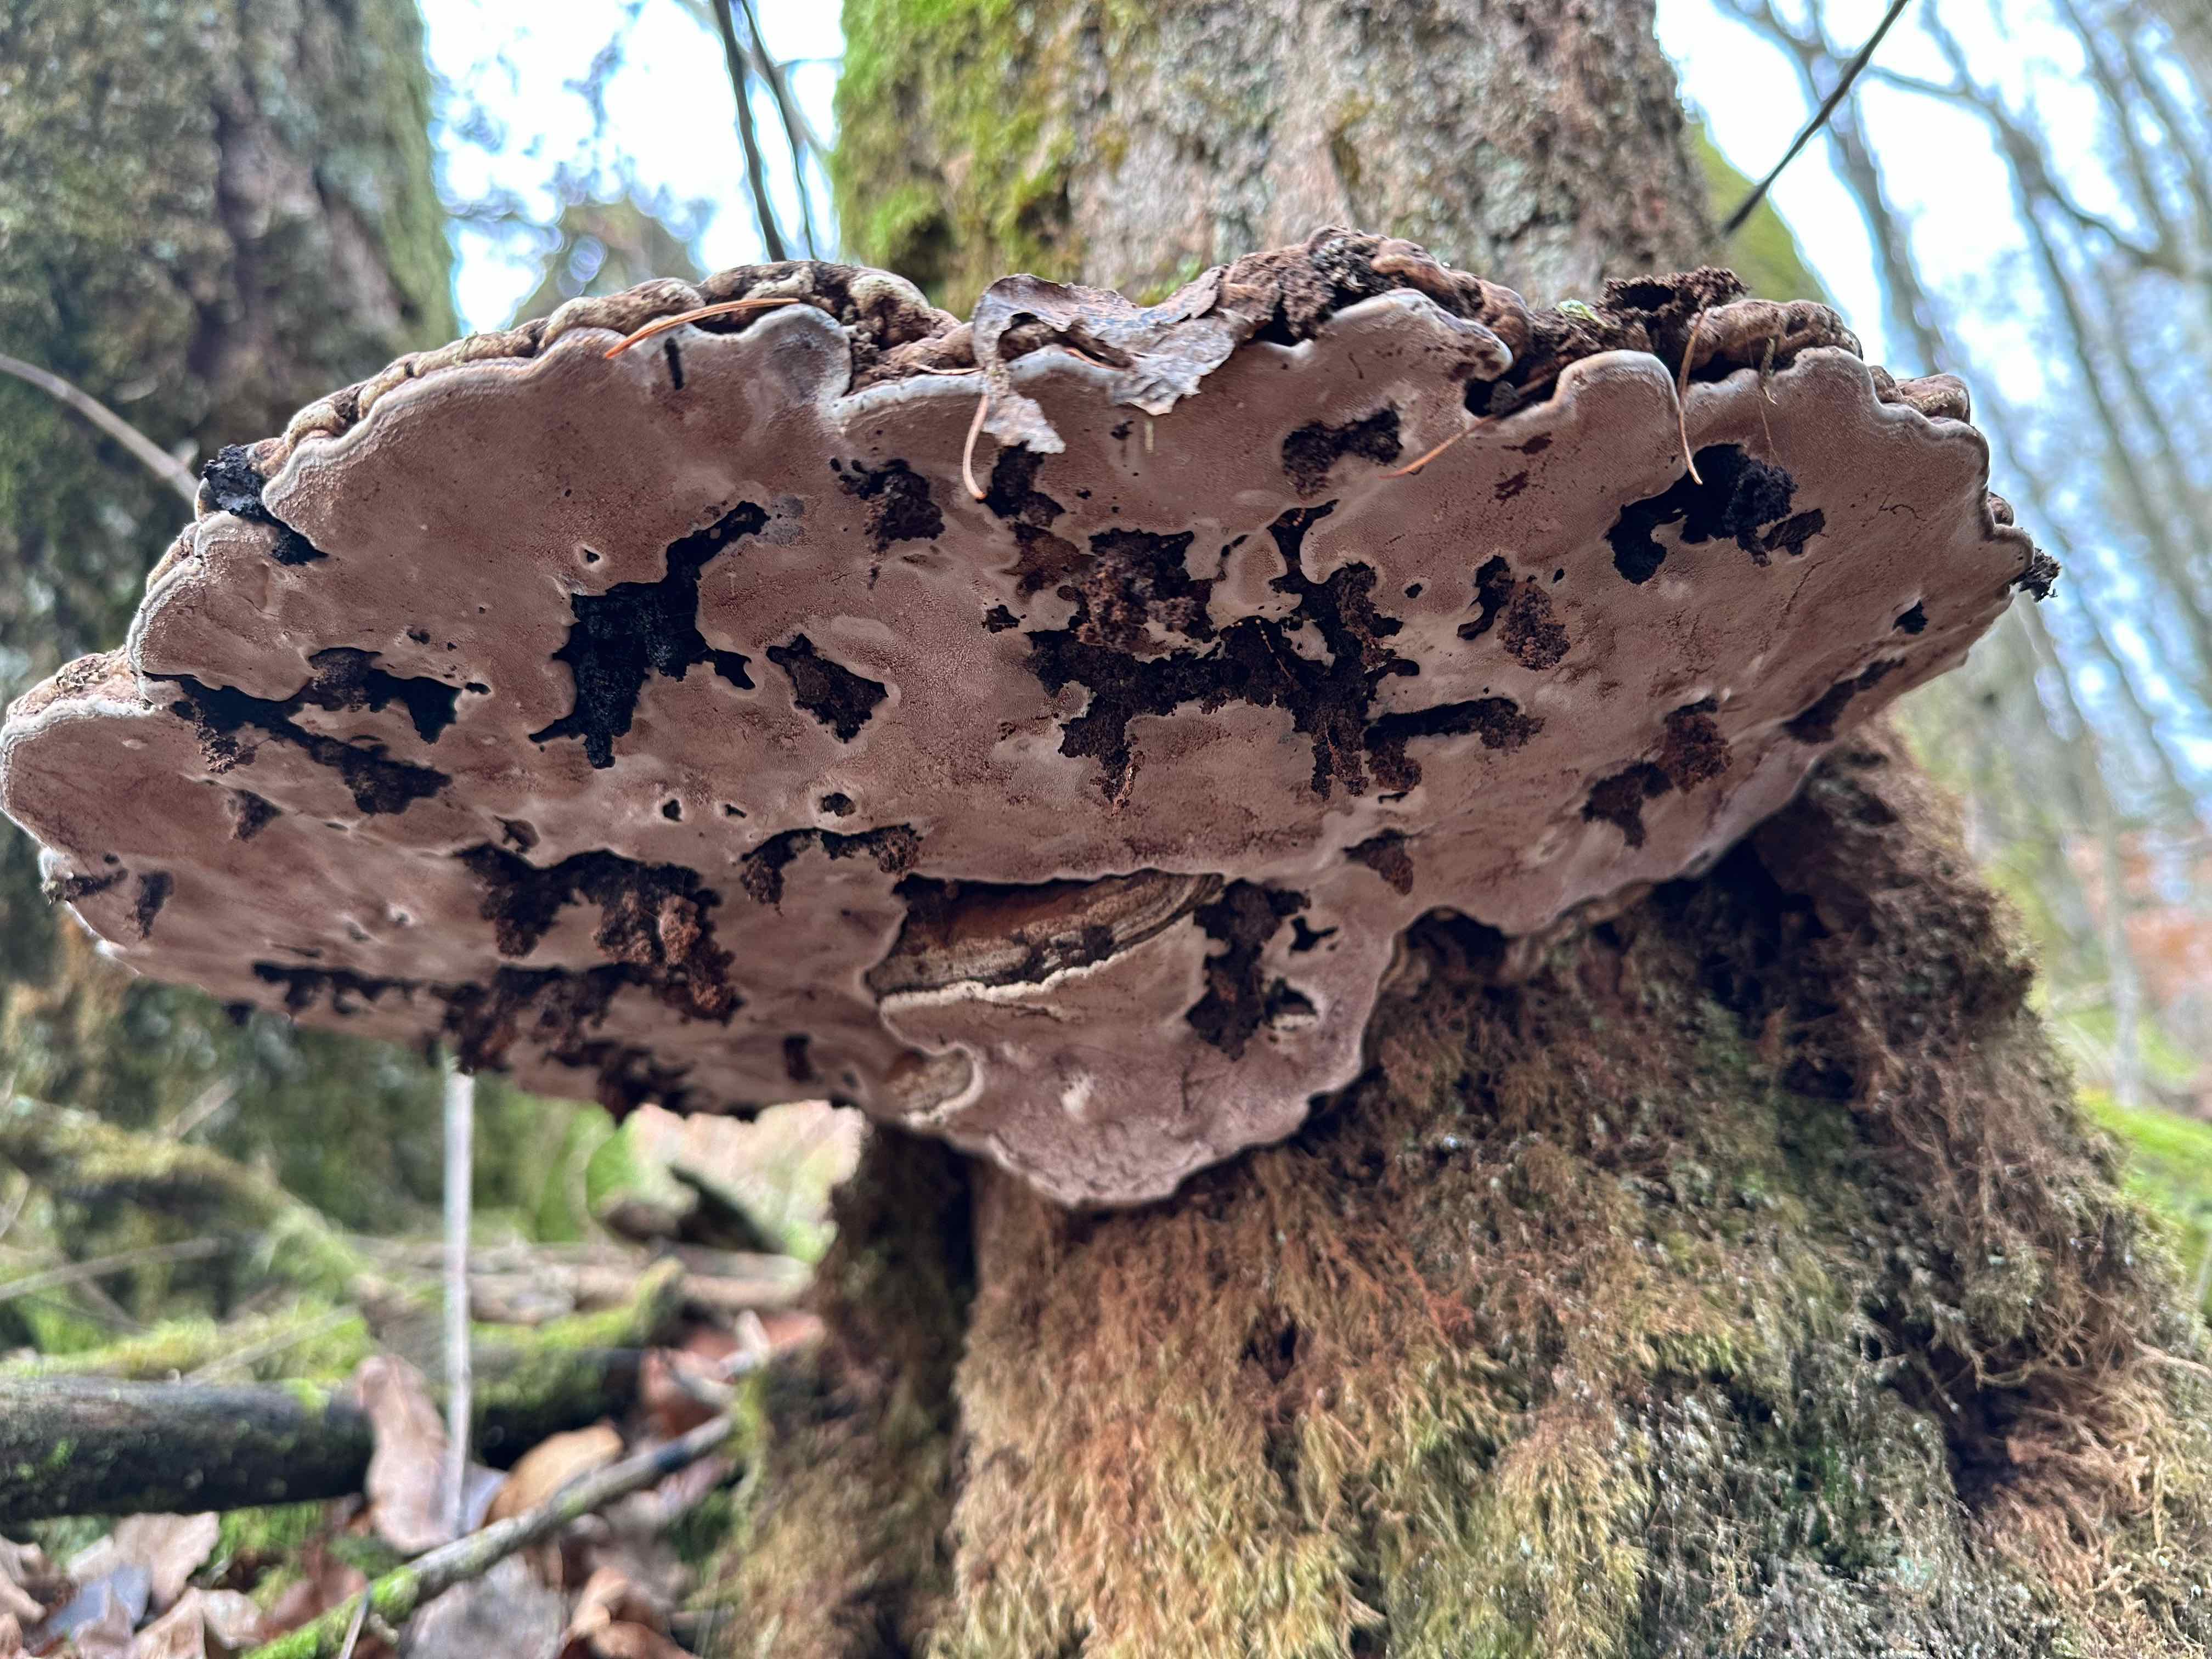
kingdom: Fungi
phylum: Basidiomycota
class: Agaricomycetes
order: Polyporales
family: Polyporaceae
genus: Ganoderma
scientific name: Ganoderma applanatum
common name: flad lakporesvamp
